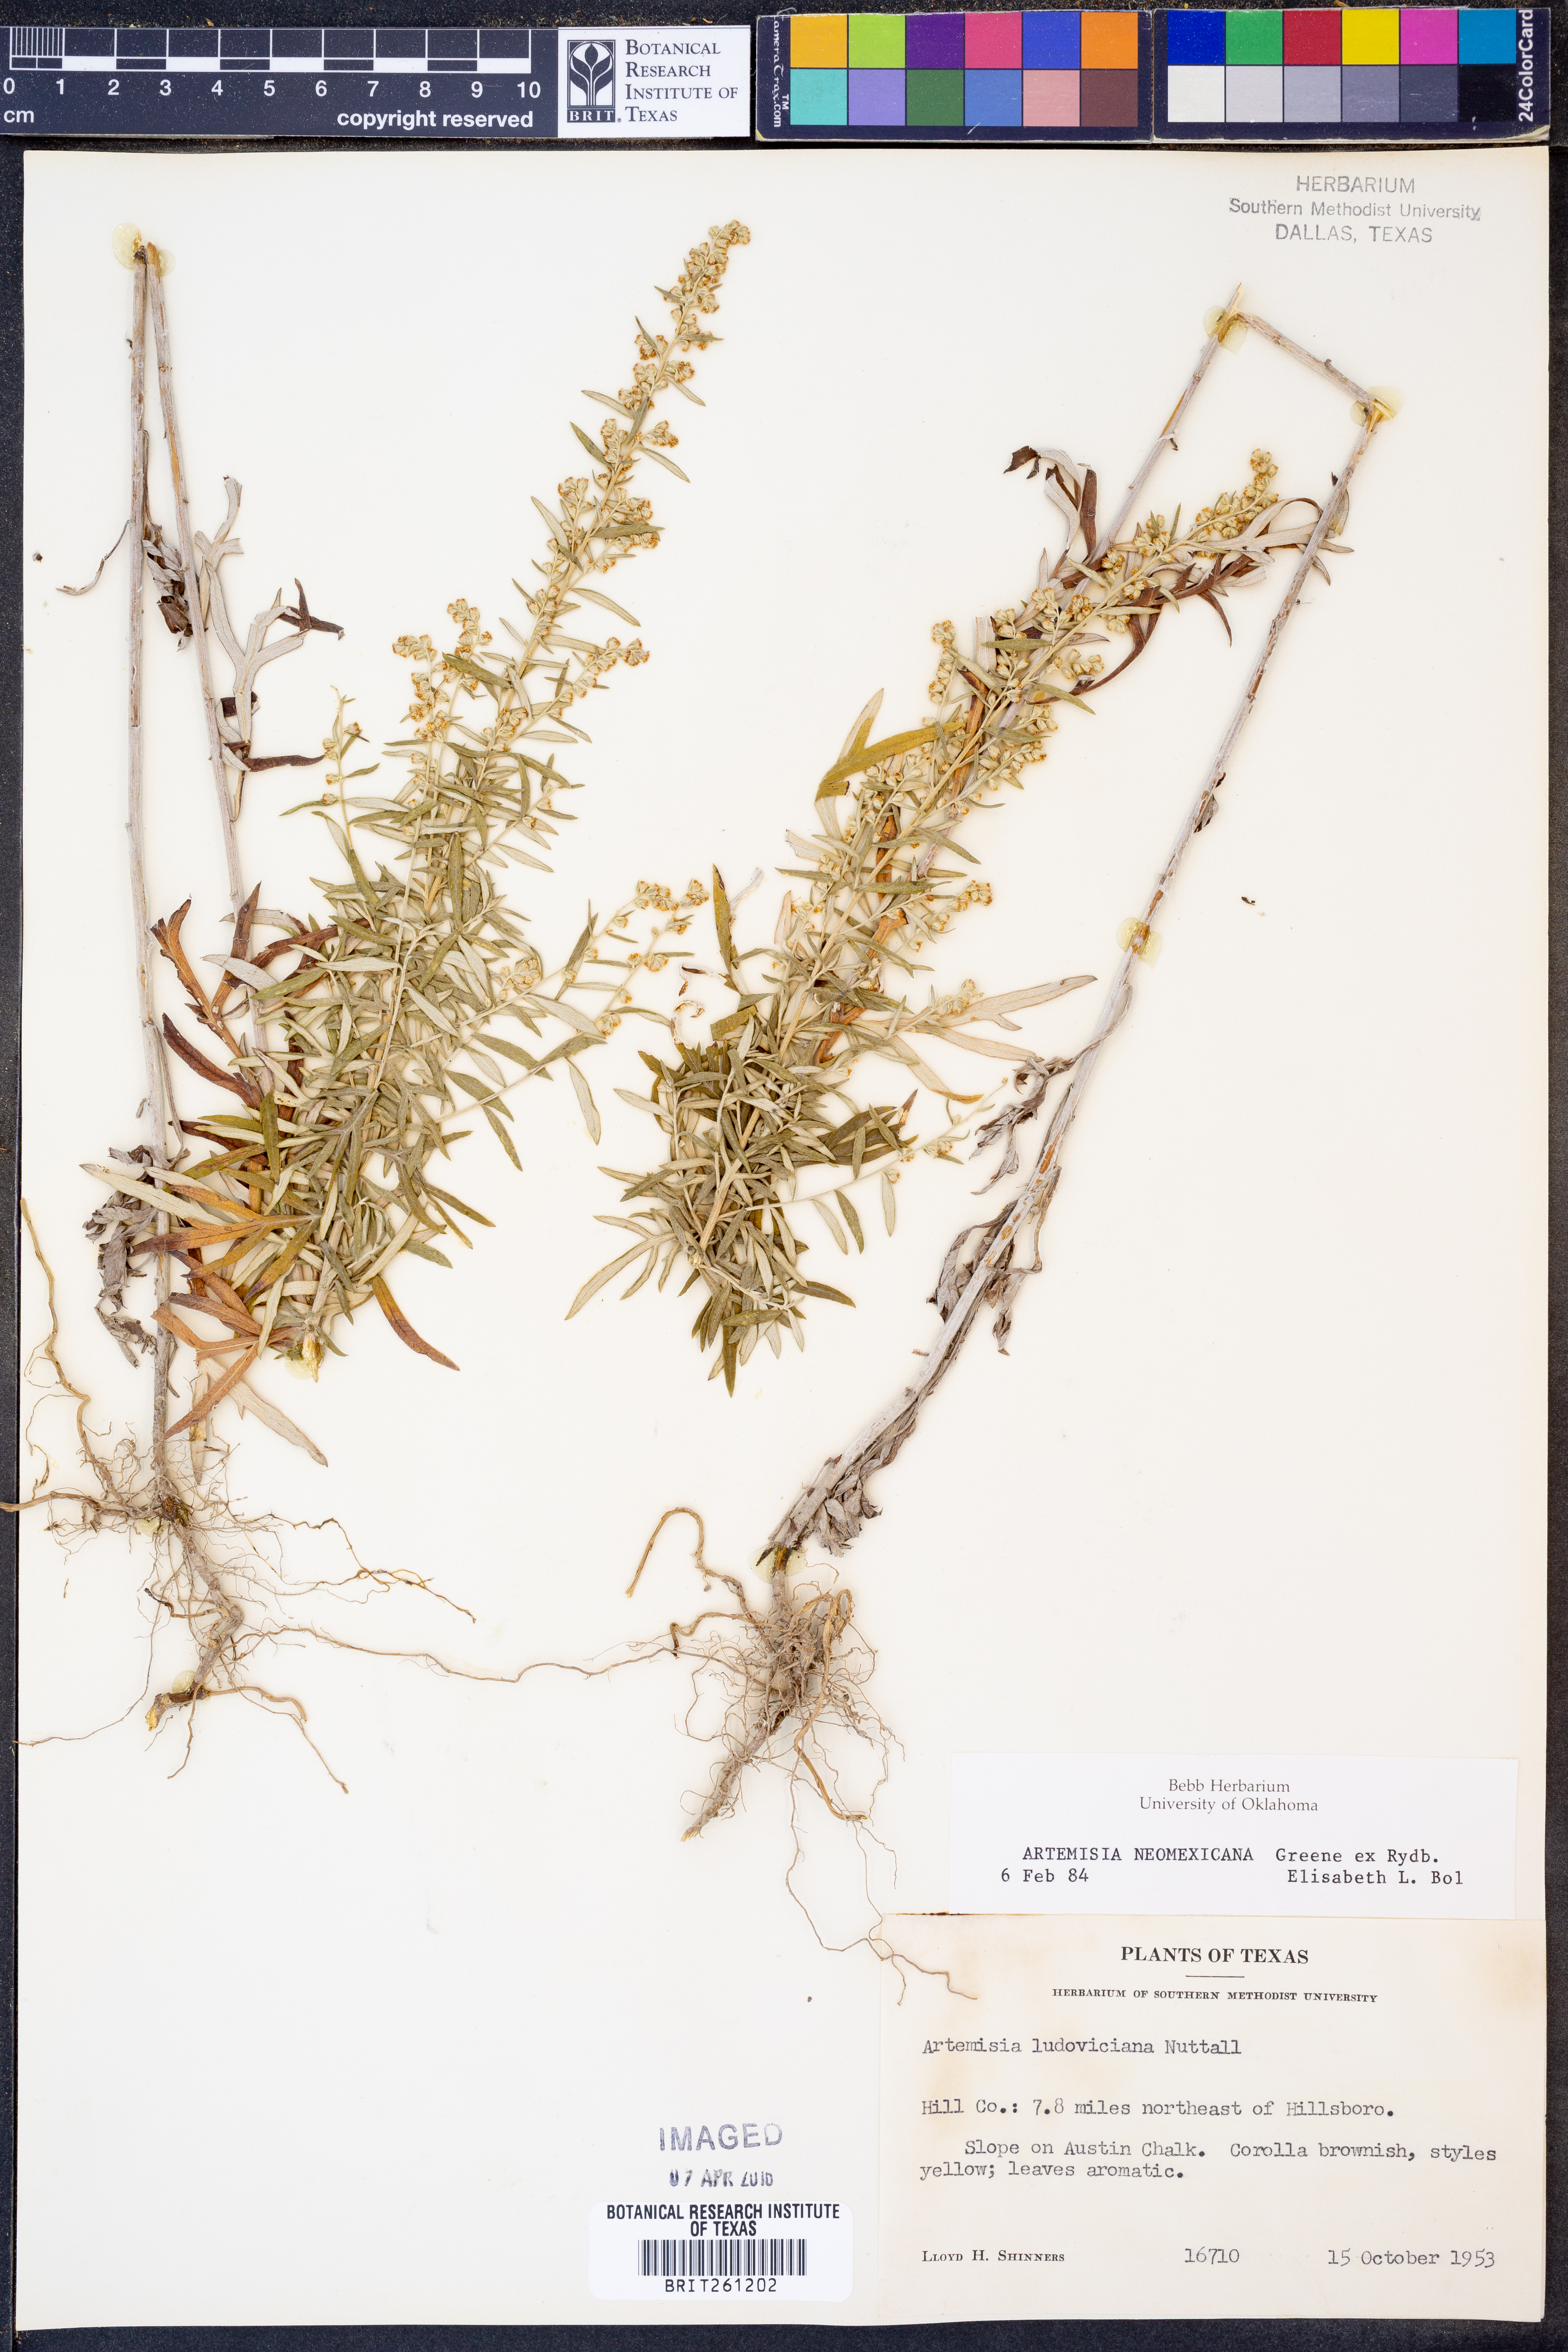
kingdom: Plantae
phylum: Tracheophyta
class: Magnoliopsida
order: Asterales
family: Asteraceae
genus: Artemisia
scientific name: Artemisia ludoviciana
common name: Western mugwort
